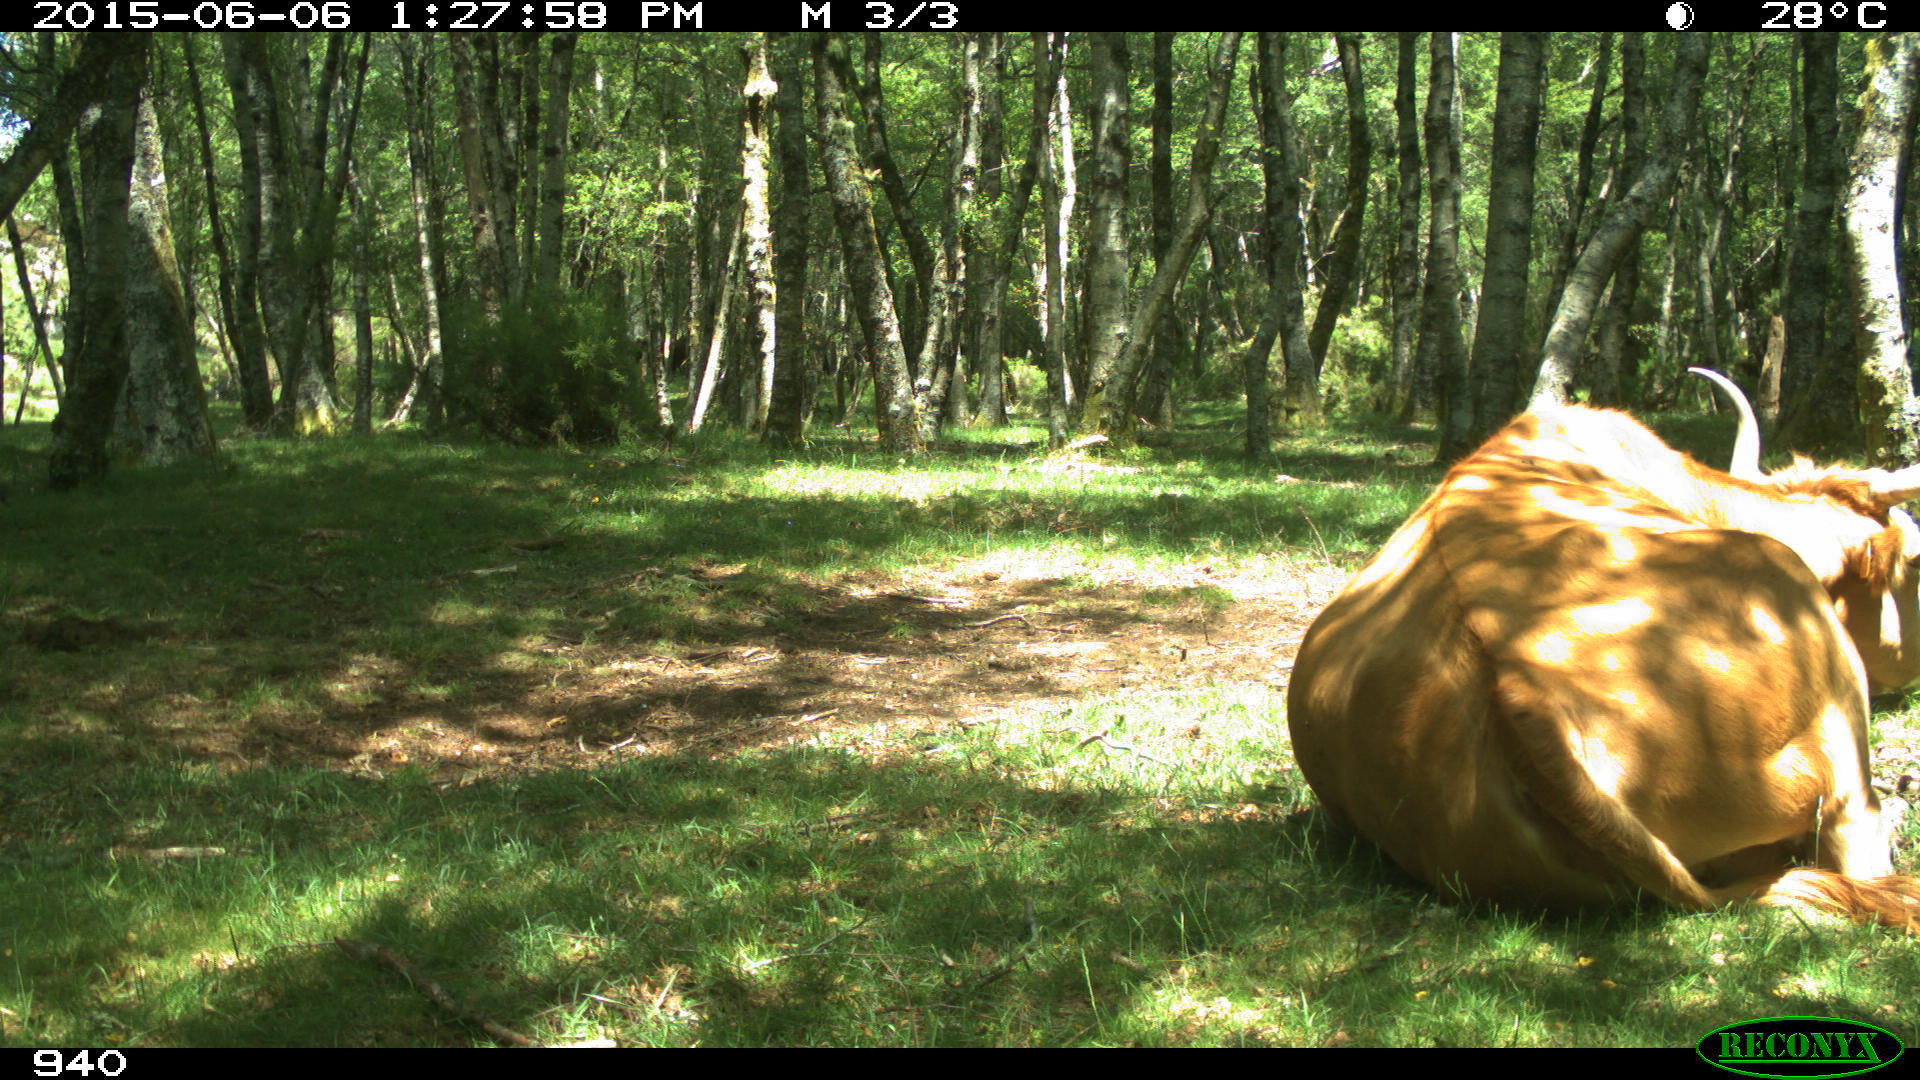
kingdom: Animalia
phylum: Chordata
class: Mammalia
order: Artiodactyla
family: Bovidae
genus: Bos
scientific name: Bos taurus
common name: Domesticated cattle
